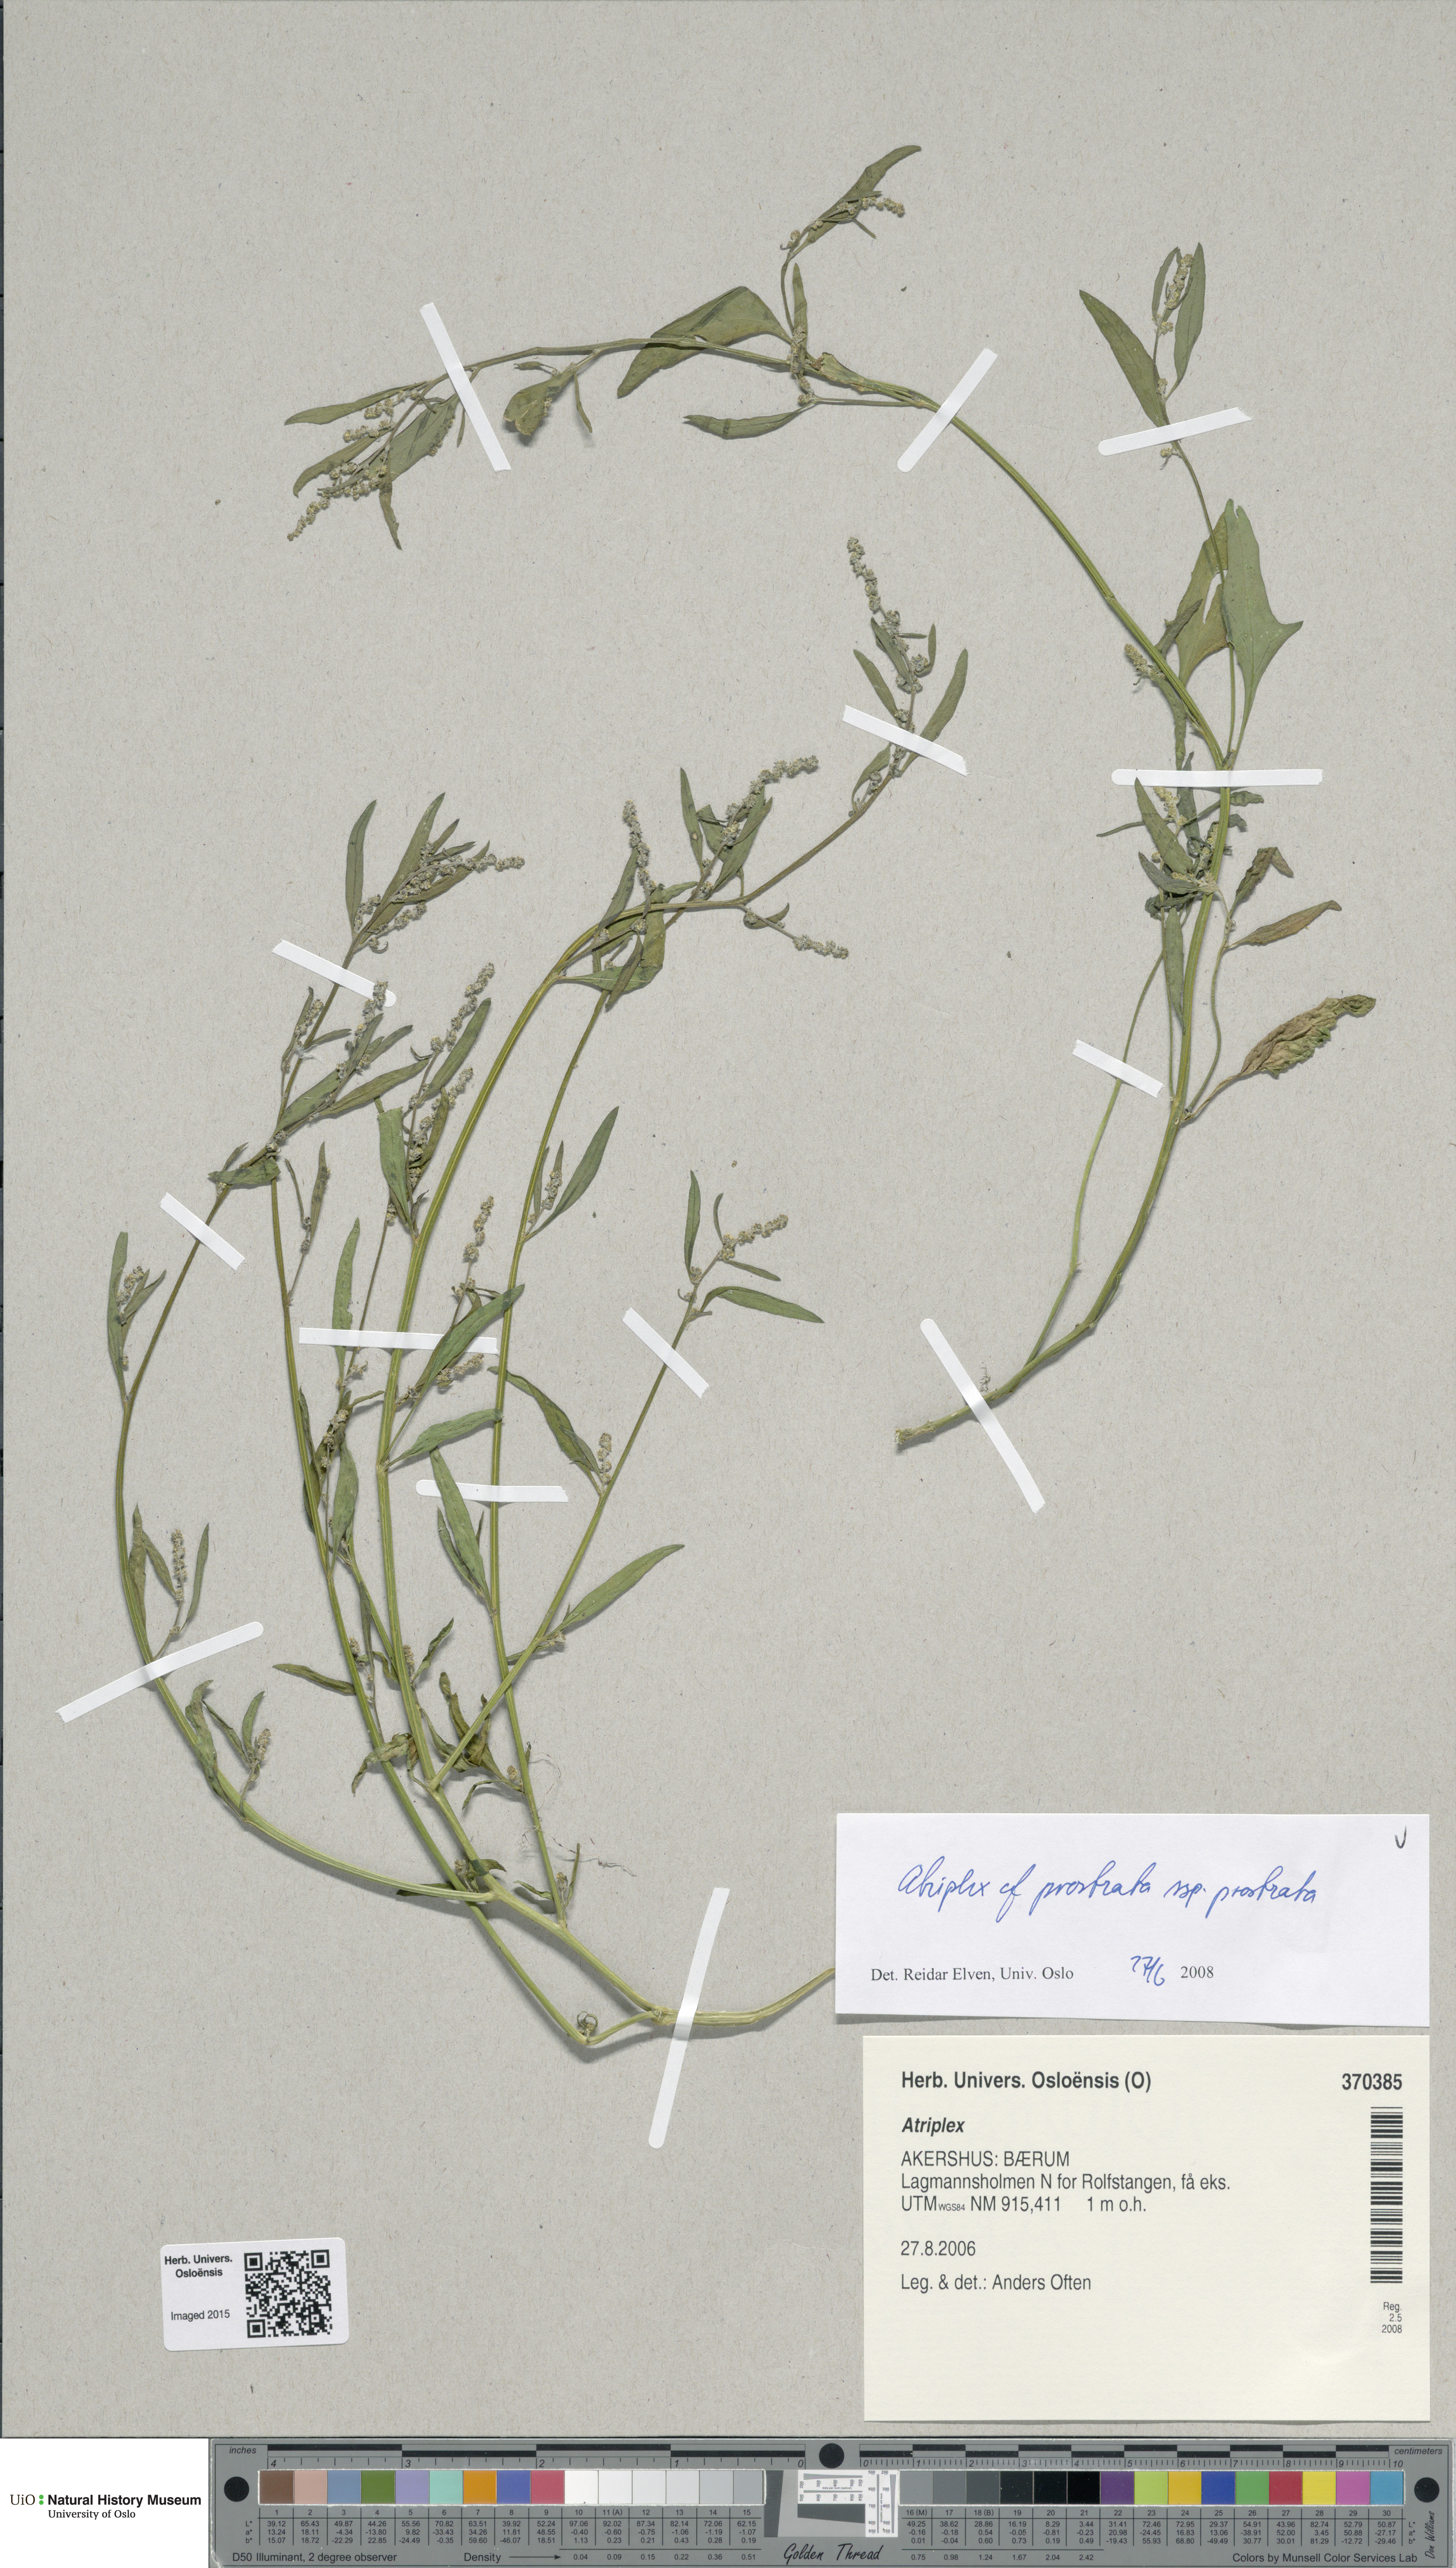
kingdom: Plantae
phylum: Tracheophyta
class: Magnoliopsida
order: Caryophyllales
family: Amaranthaceae
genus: Atriplex
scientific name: Atriplex prostrata
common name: Spear-leaved orache
